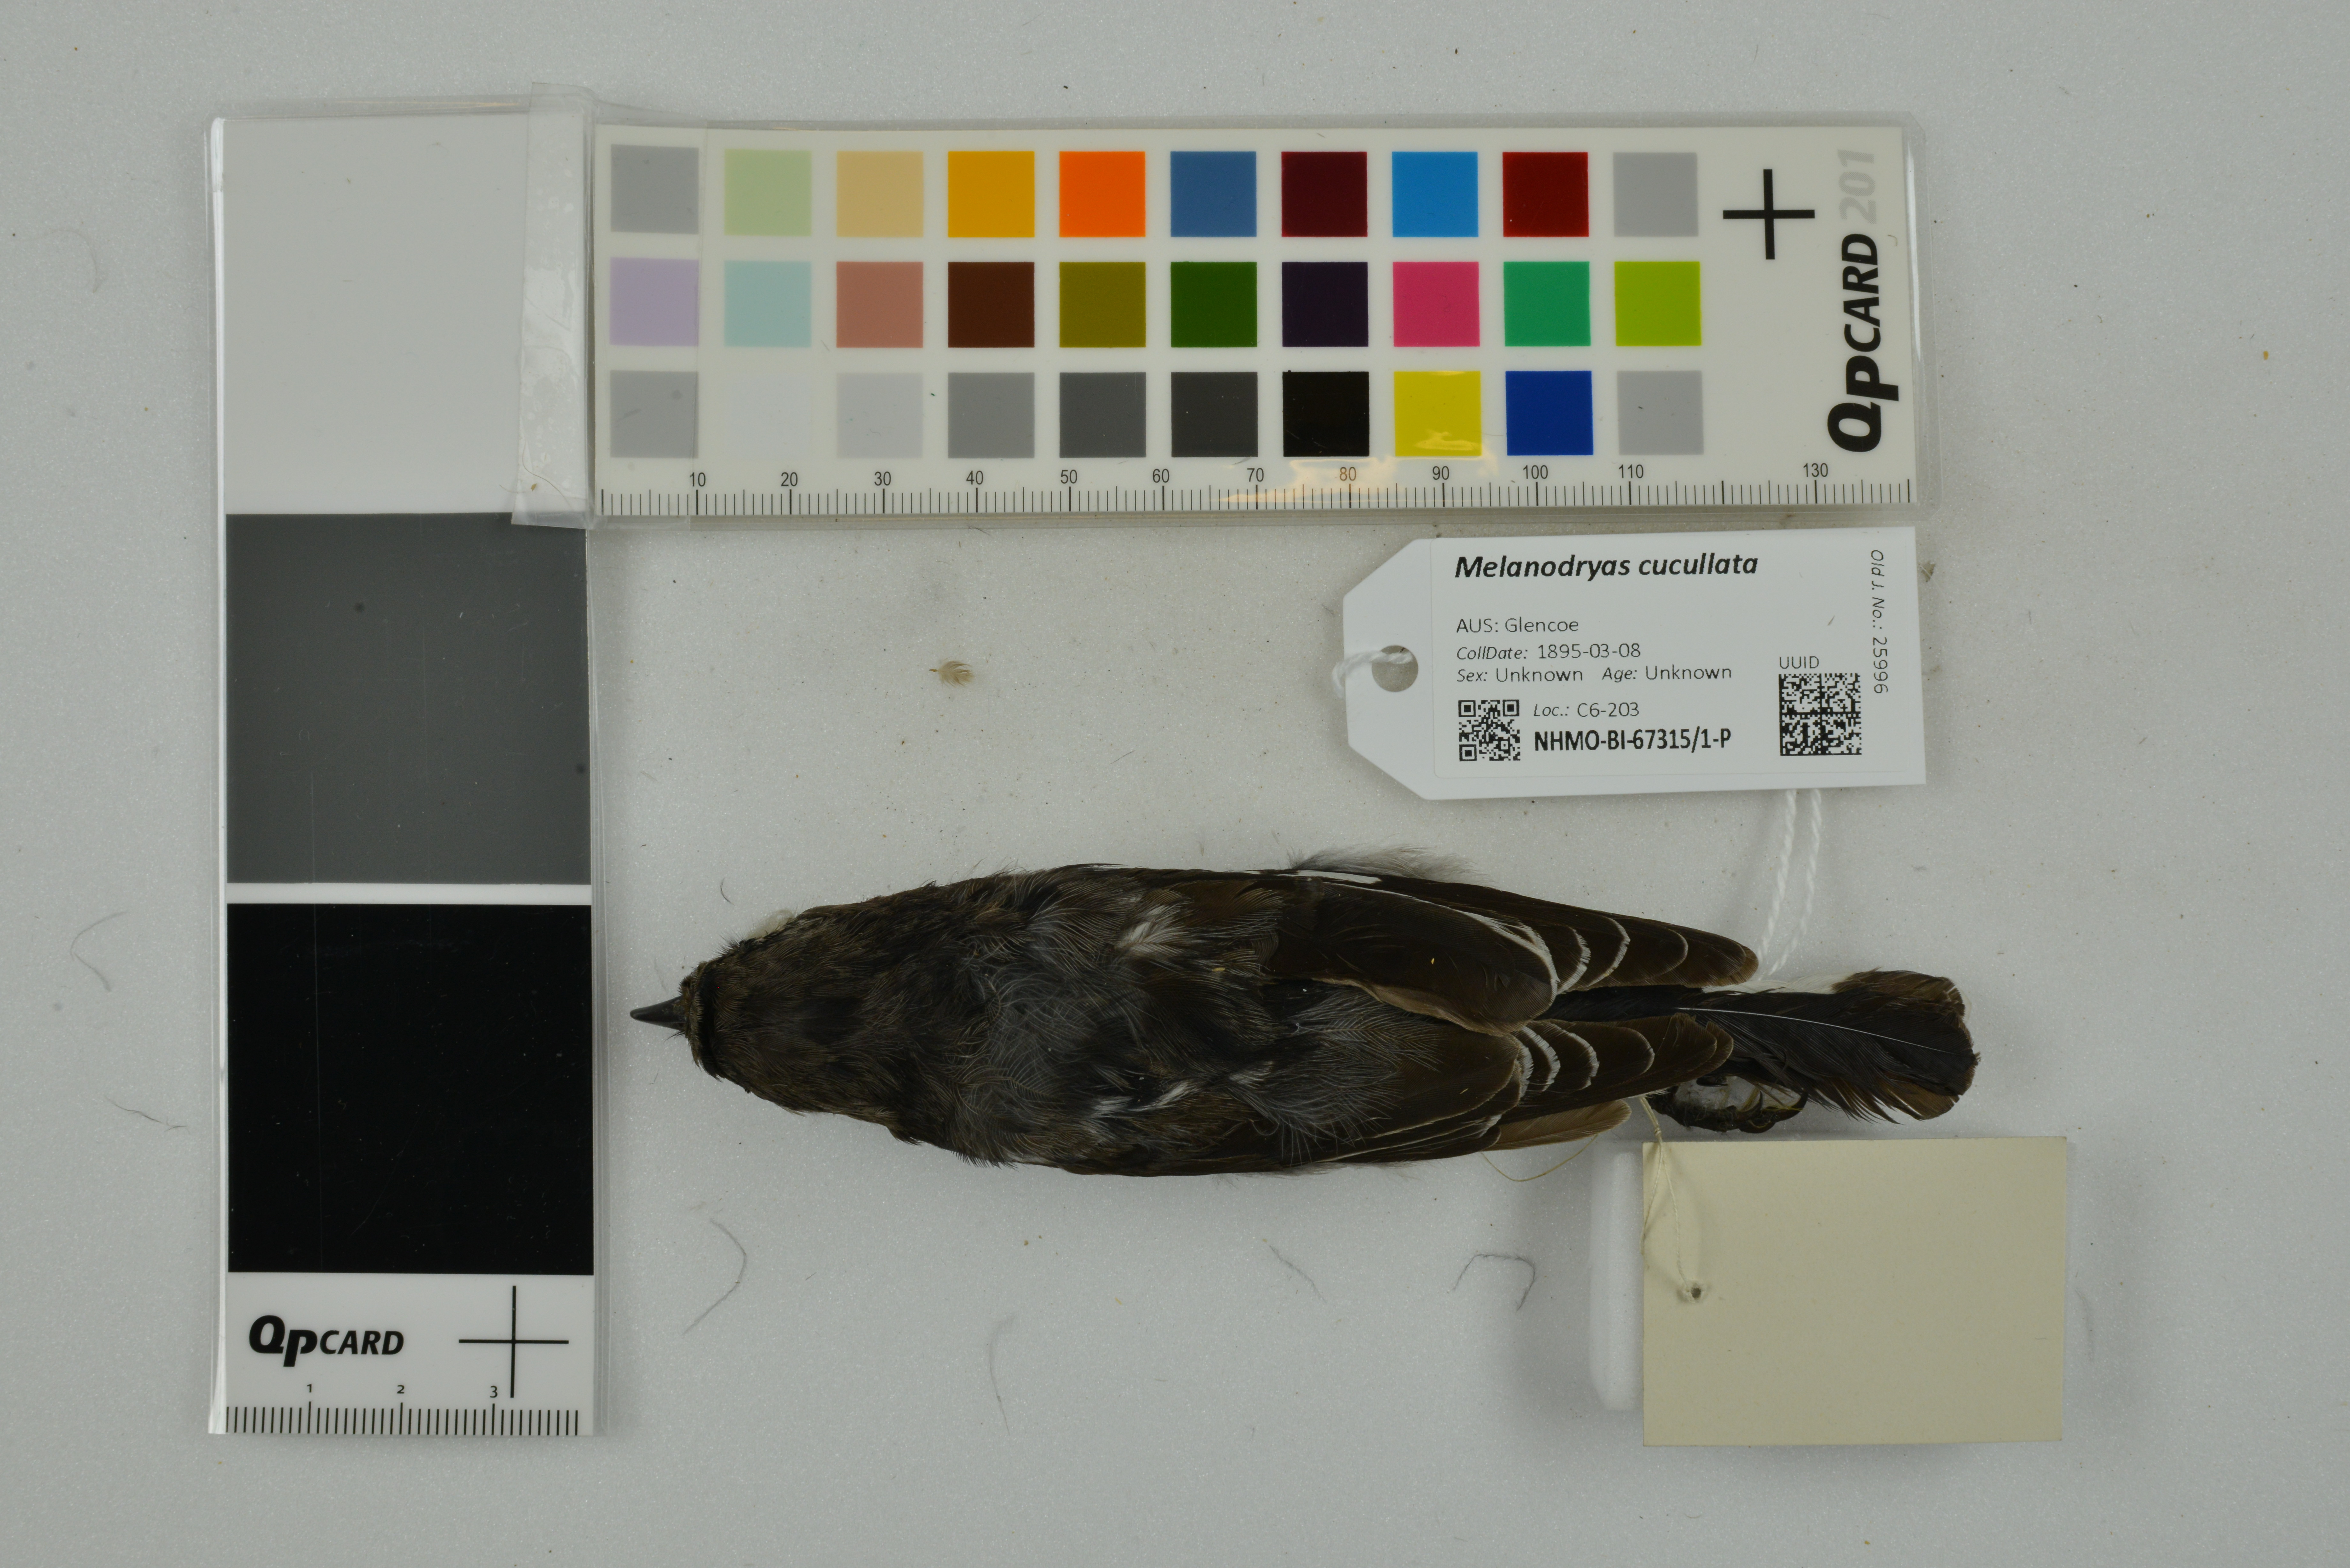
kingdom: Animalia
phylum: Chordata
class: Aves
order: Passeriformes
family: Petroicidae
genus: Melanodryas
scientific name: Melanodryas cucullata
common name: Hooded robin
